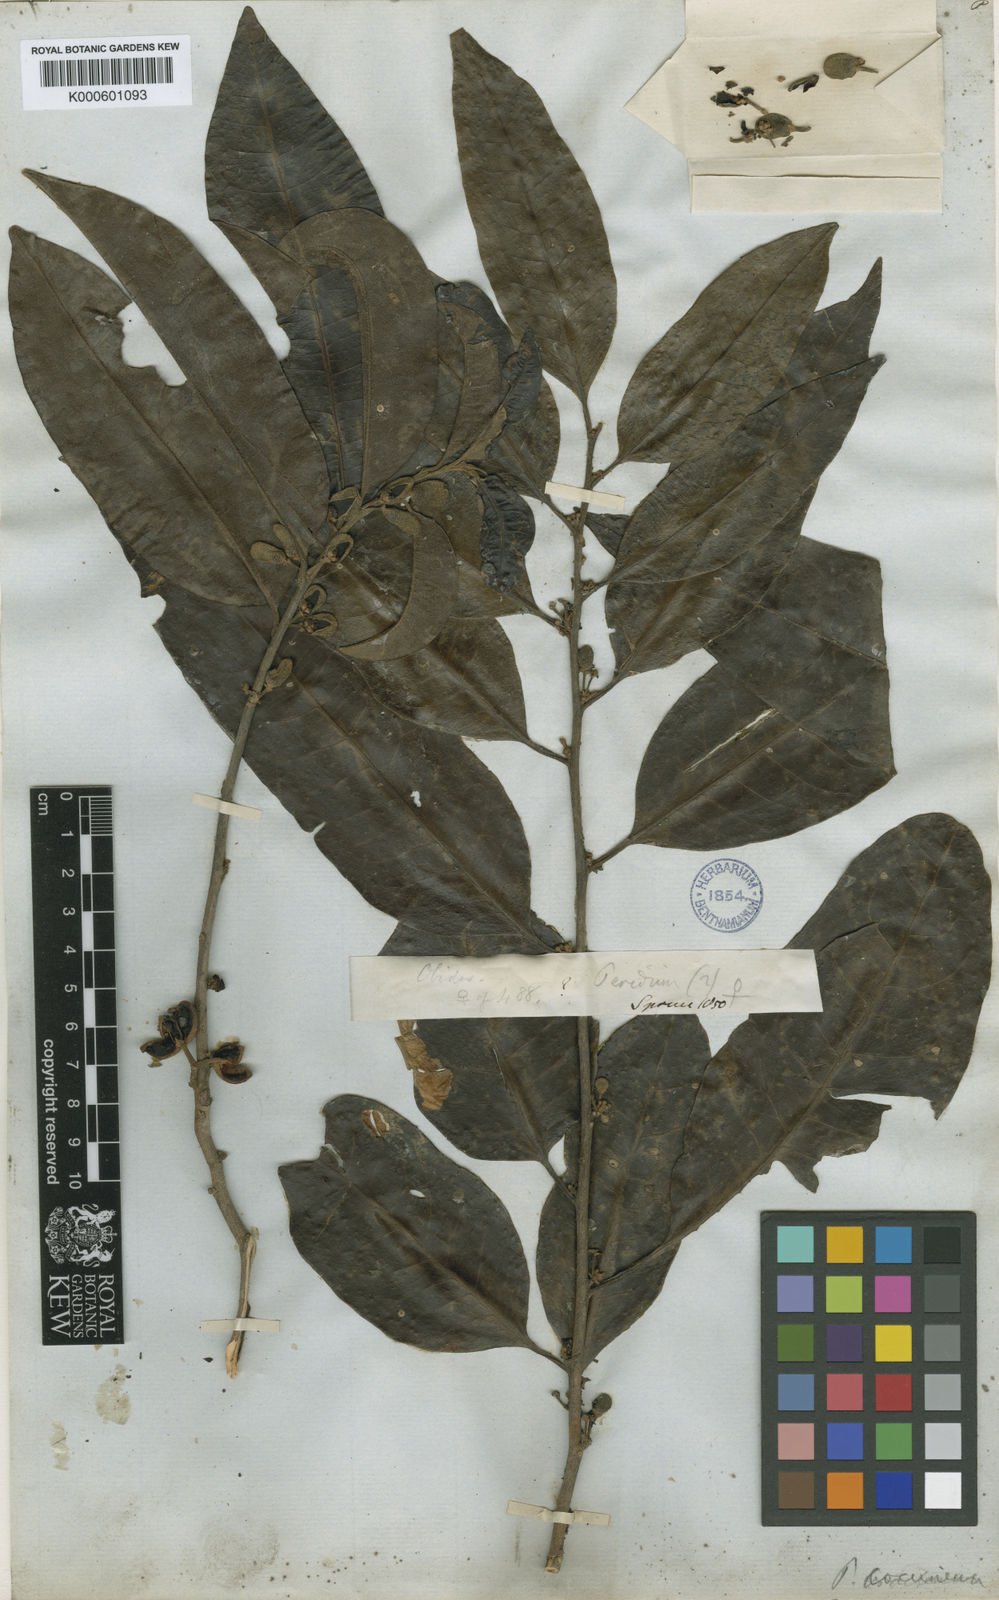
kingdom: Plantae
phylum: Tracheophyta
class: Magnoliopsida
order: Malpighiales
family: Peraceae
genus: Pera
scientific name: Pera
